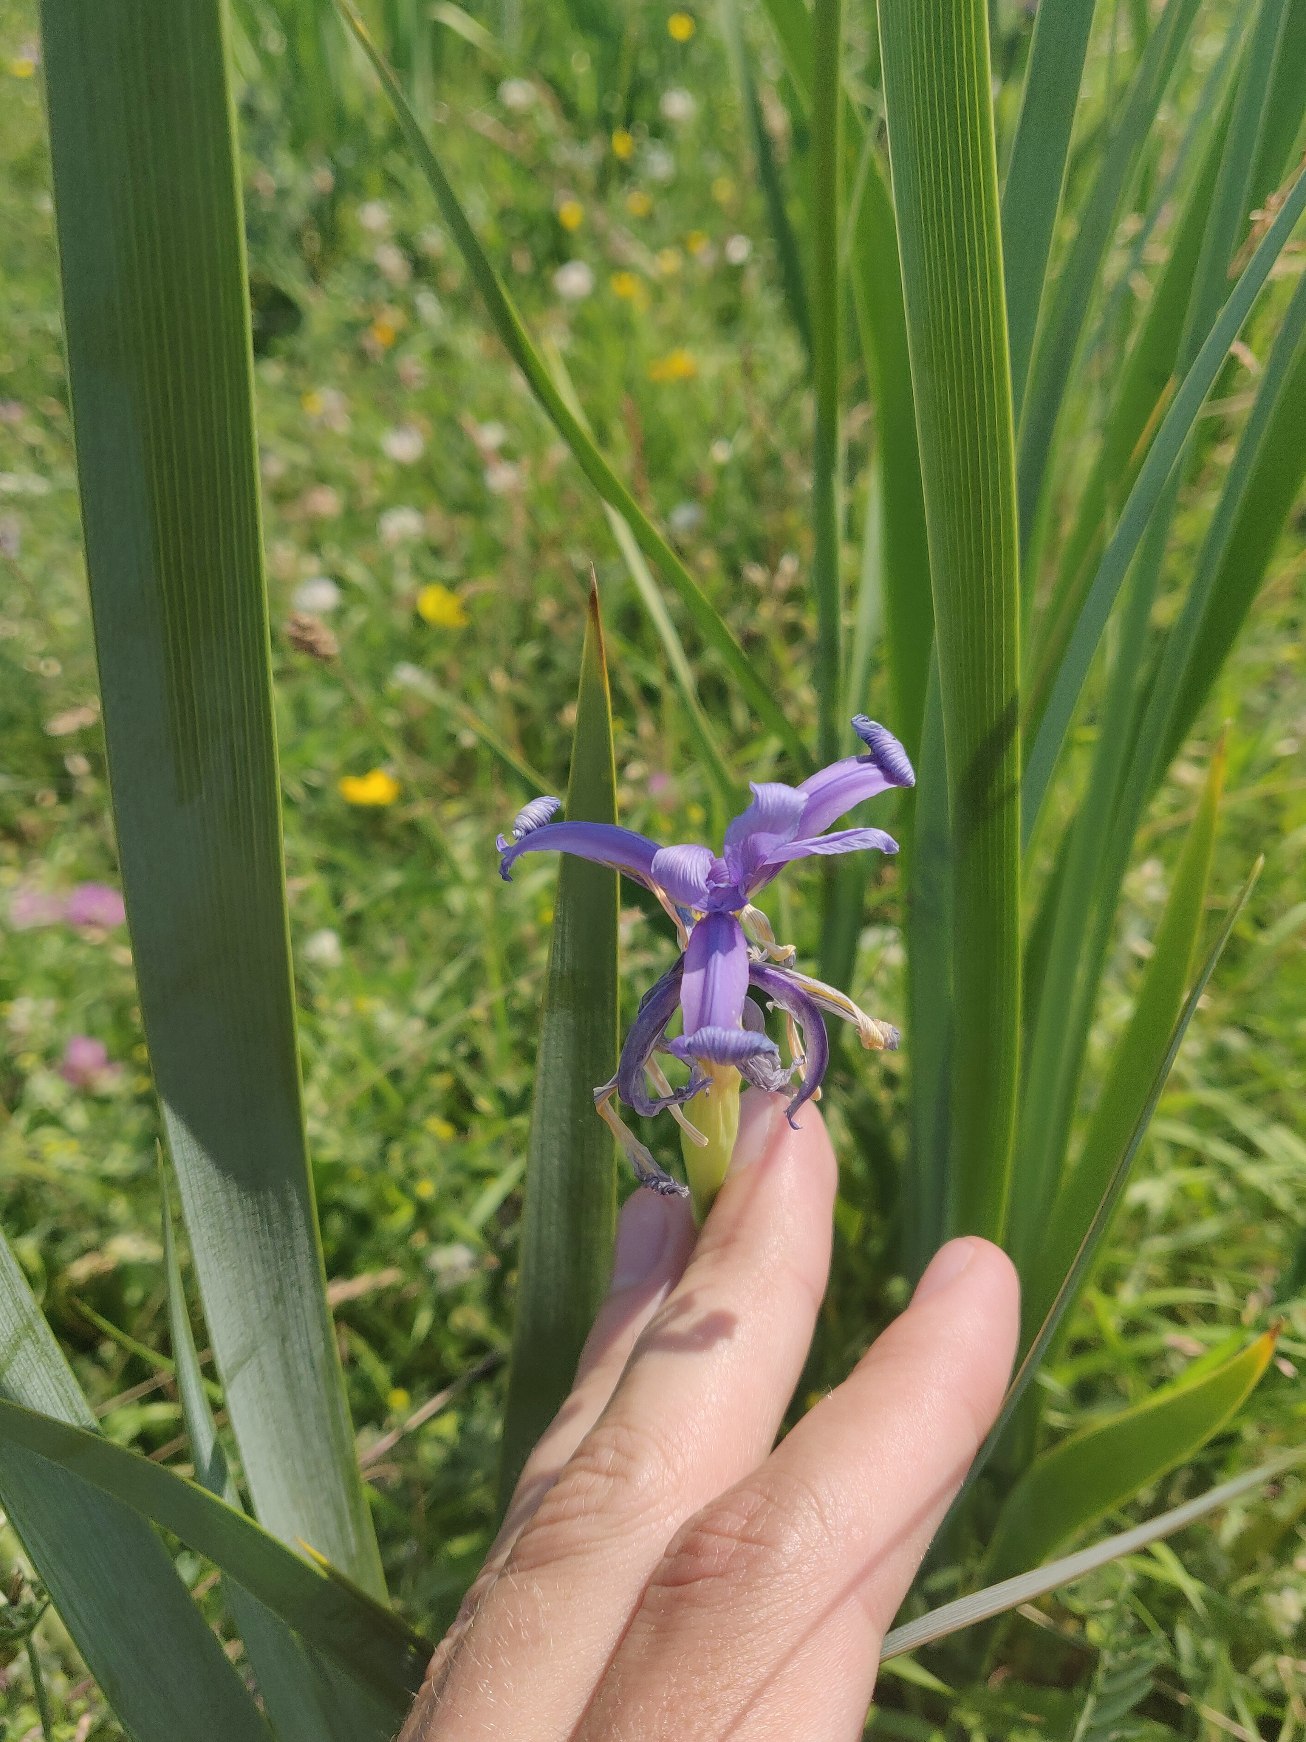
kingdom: Plantae
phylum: Tracheophyta
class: Liliopsida
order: Asparagales
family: Iridaceae
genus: Iris
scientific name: Iris spuria
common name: Blå iris
